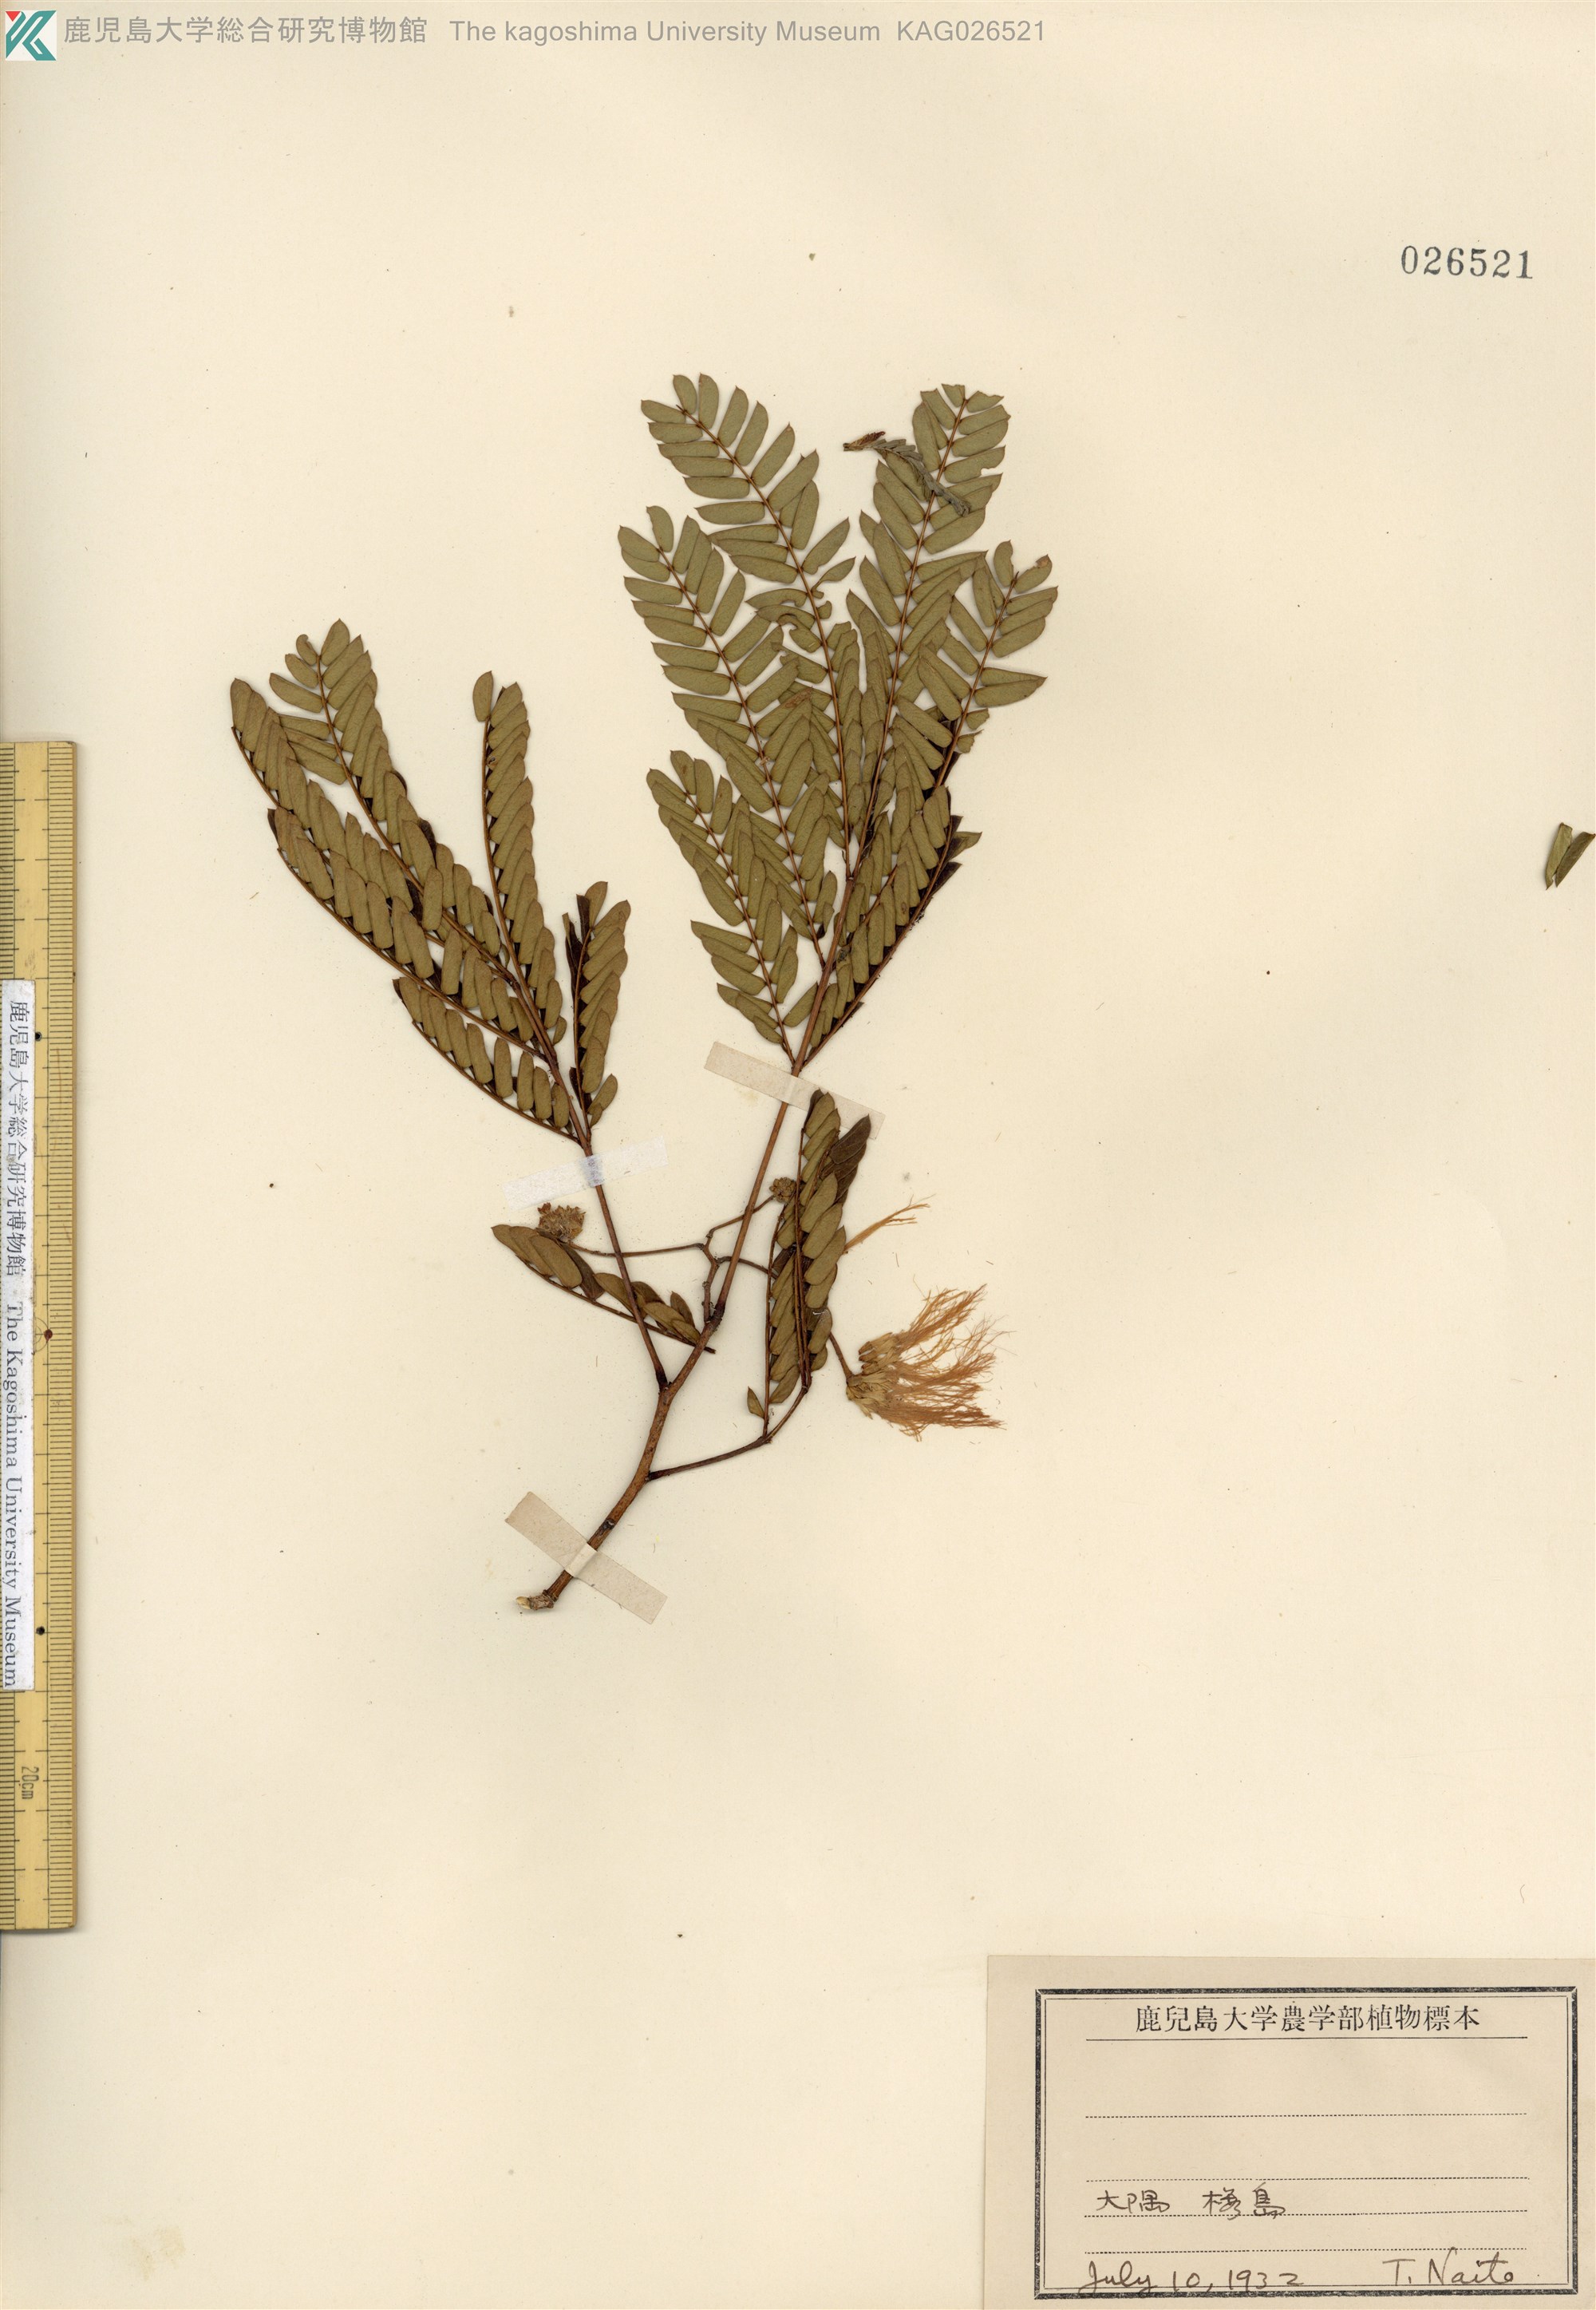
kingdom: Plantae
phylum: Tracheophyta
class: Magnoliopsida
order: Fabales
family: Fabaceae
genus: Albizia
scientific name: Albizia julibrissin
